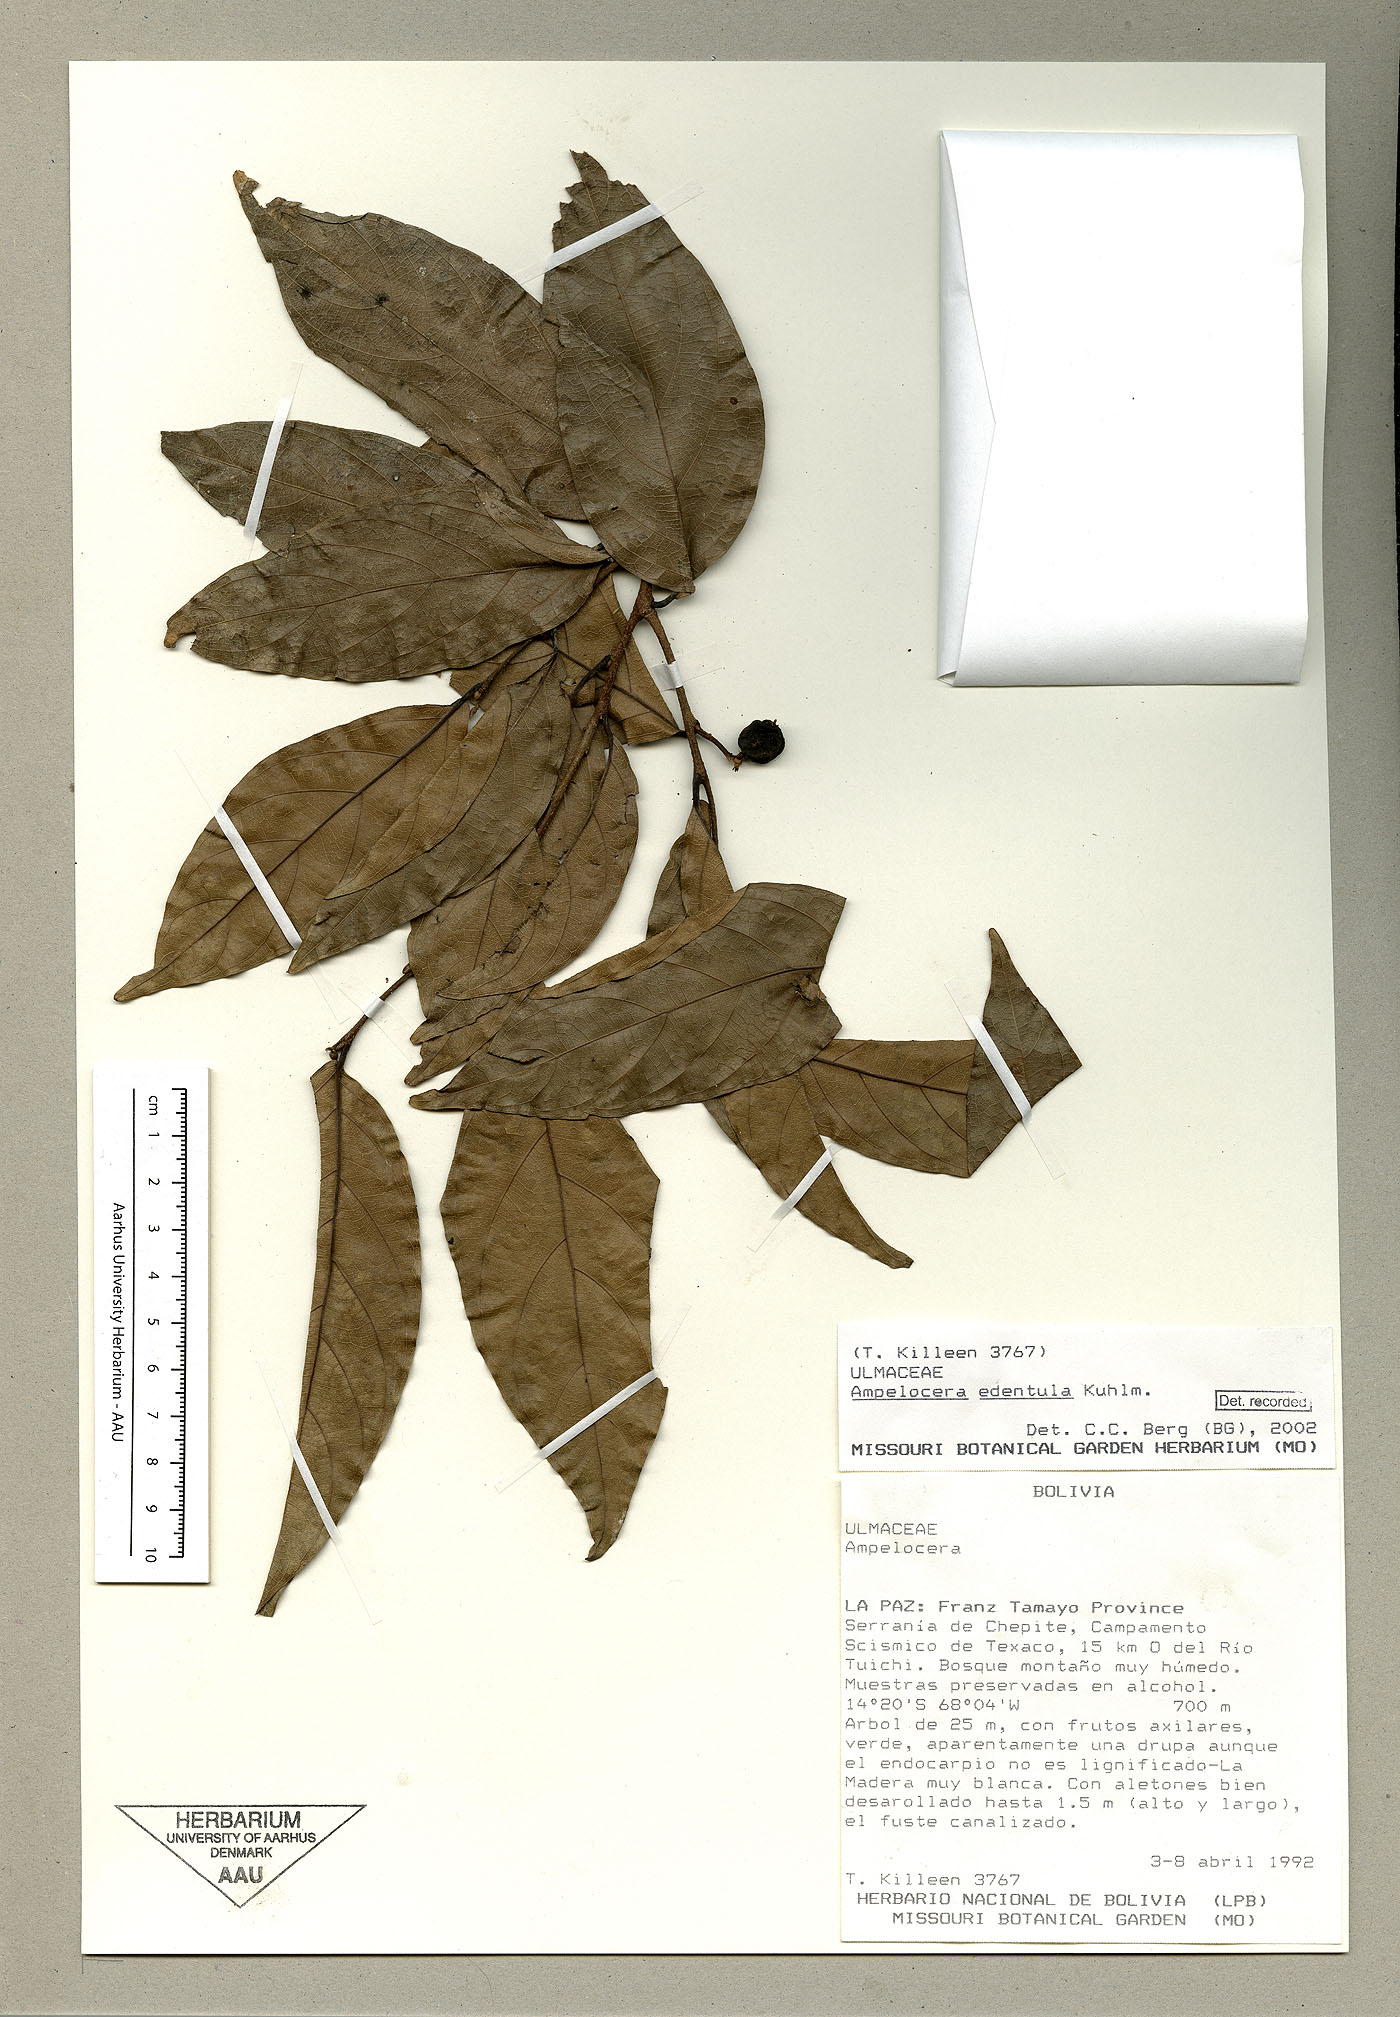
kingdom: Plantae
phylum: Tracheophyta
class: Magnoliopsida
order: Rosales
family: Cannabaceae
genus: Ampelocera
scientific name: Ampelocera edentula
